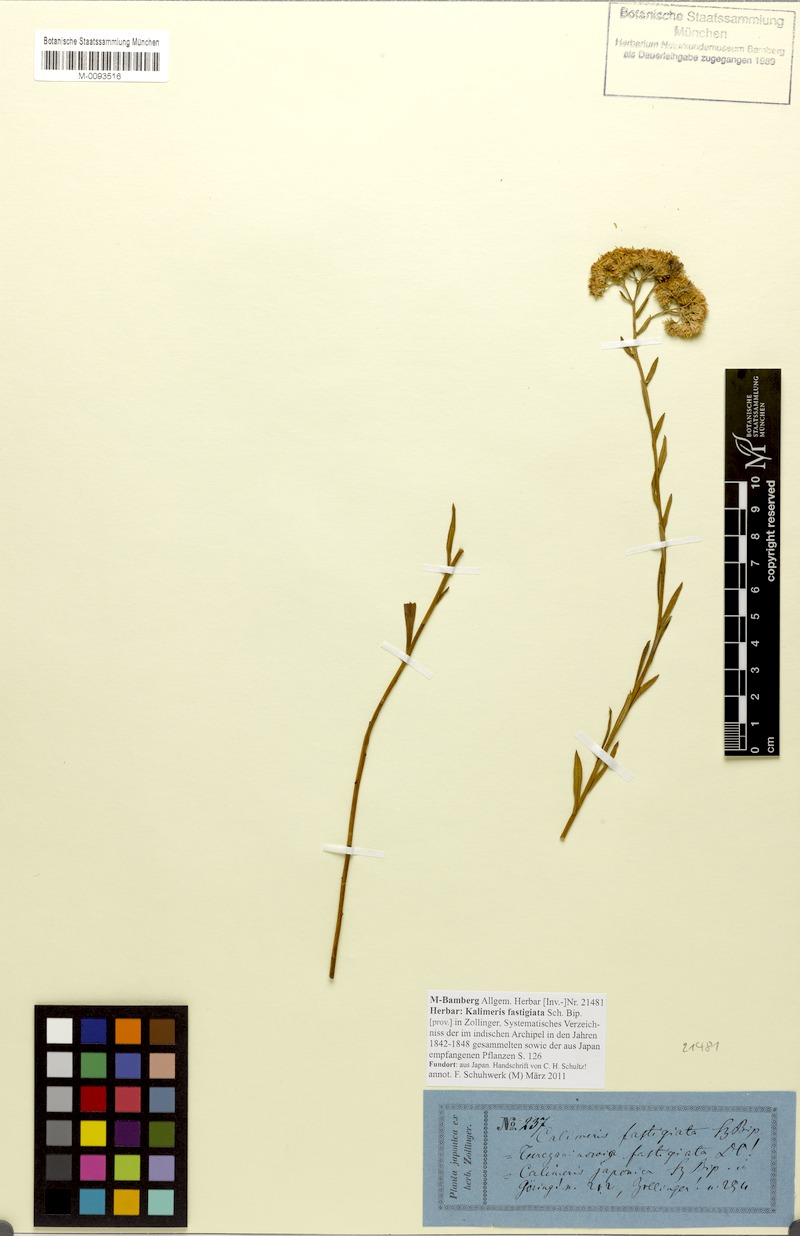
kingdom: Plantae
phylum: Tracheophyta
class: Magnoliopsida
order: Asterales
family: Asteraceae
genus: Turczaninovia
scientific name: Turczaninovia fastigiata
